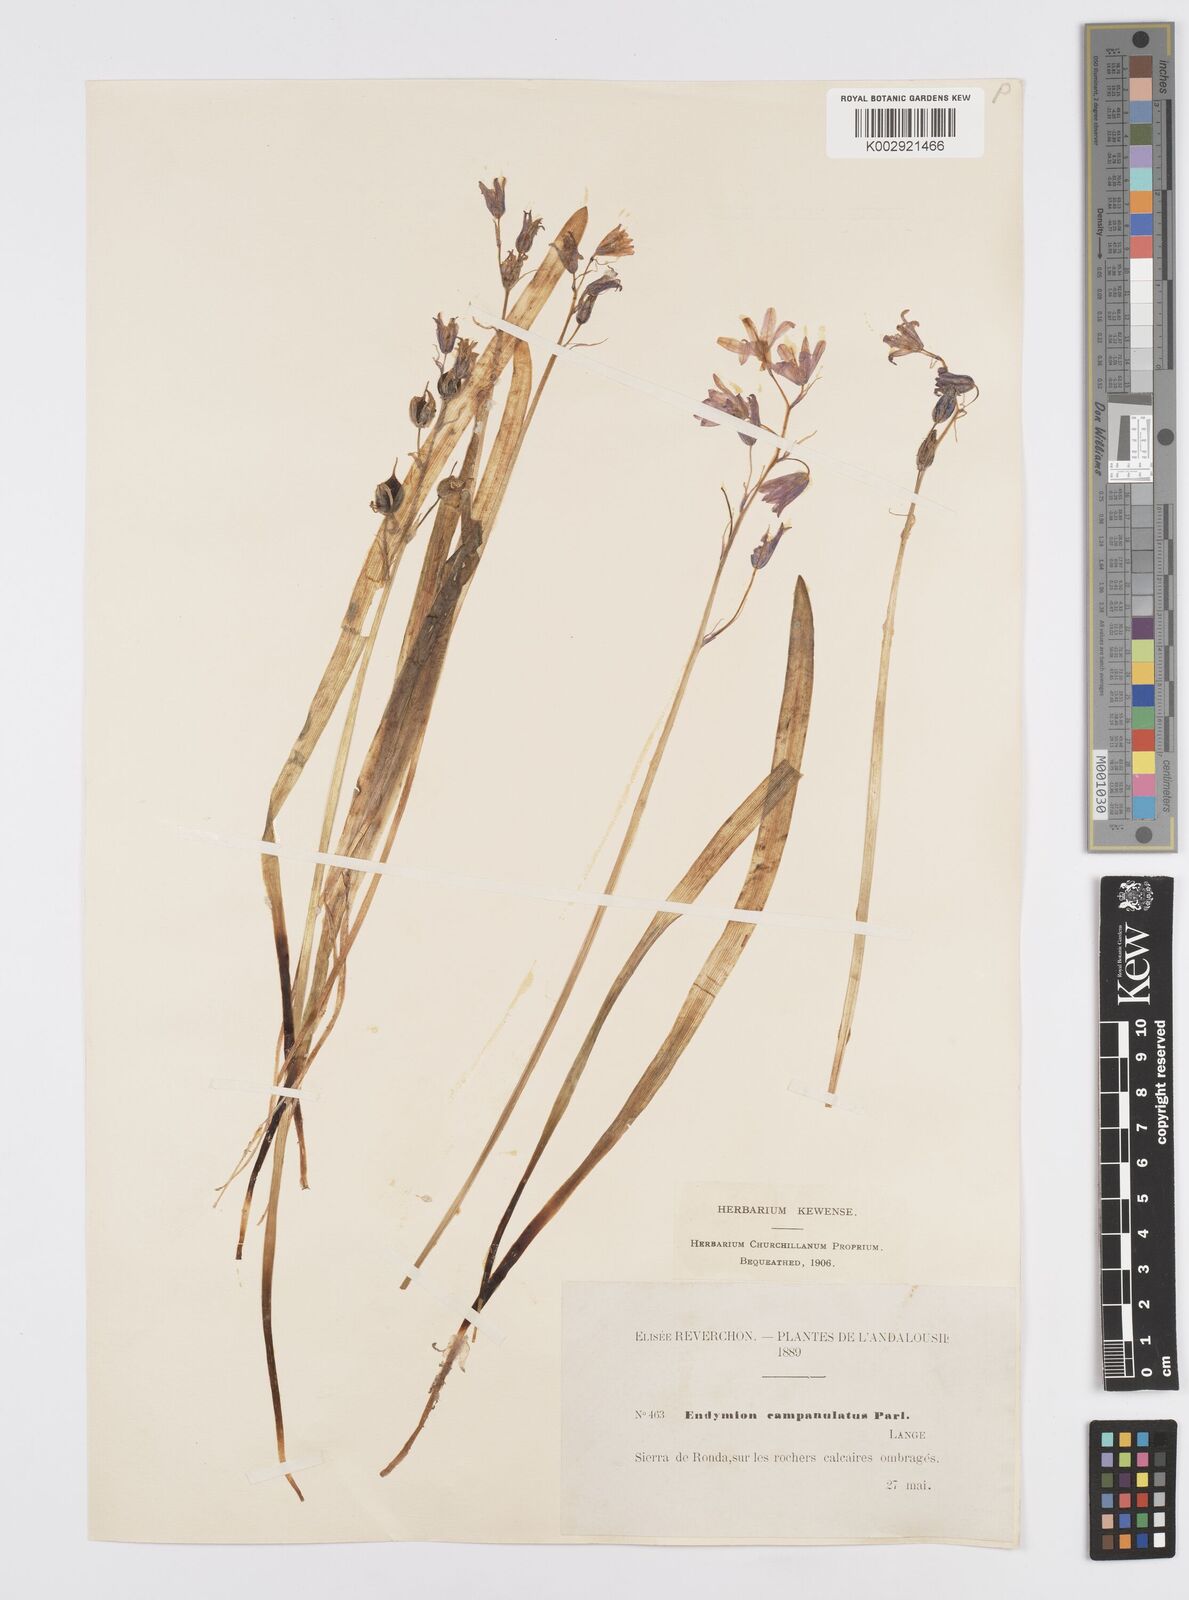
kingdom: Plantae
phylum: Tracheophyta
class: Liliopsida
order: Asparagales
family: Asparagaceae
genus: Hyacinthoides
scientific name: Hyacinthoides hispanica
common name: Spanish bluebell
